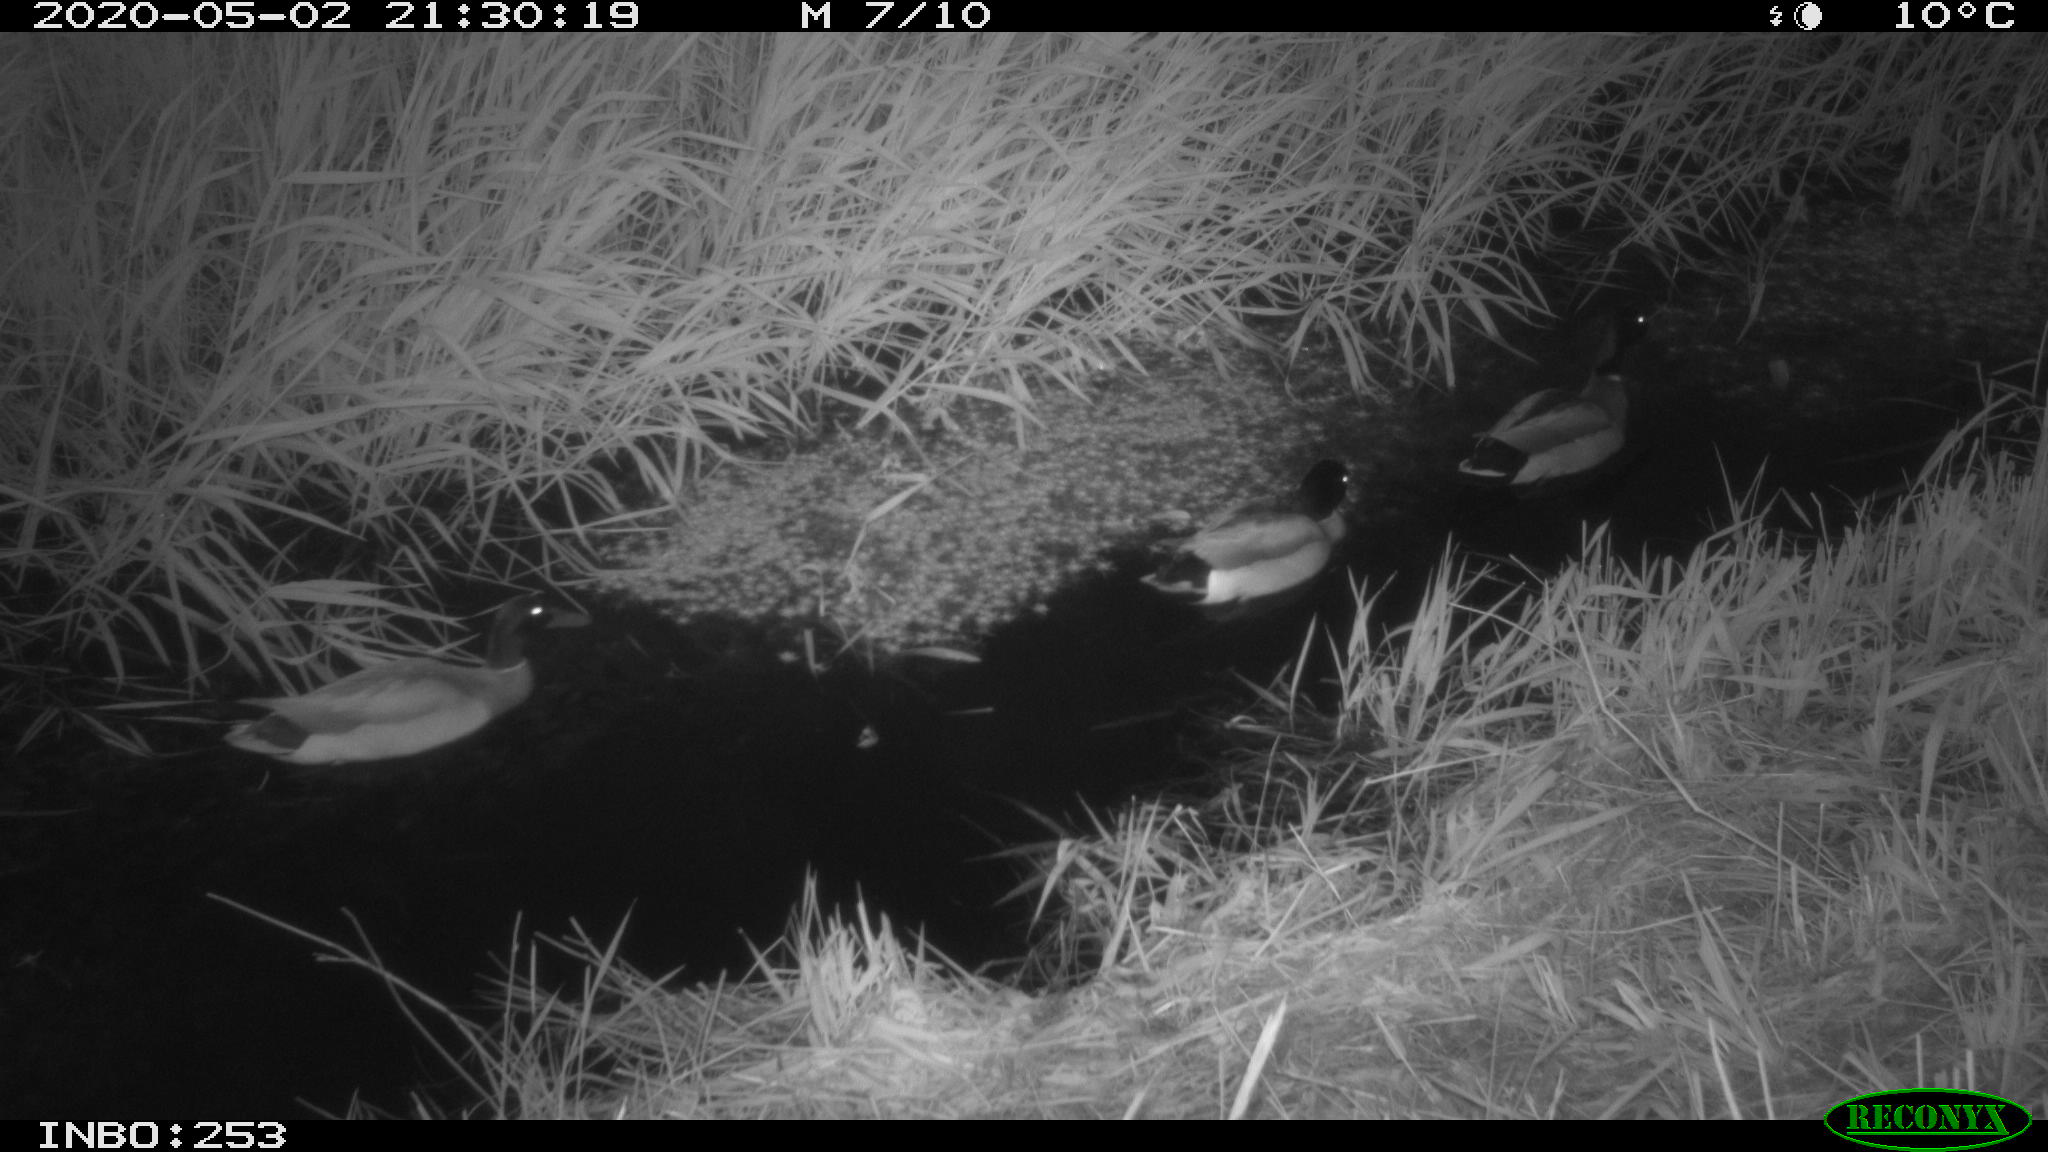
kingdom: Animalia
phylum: Chordata
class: Aves
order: Anseriformes
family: Anatidae
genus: Anas
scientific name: Anas platyrhynchos
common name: Mallard
